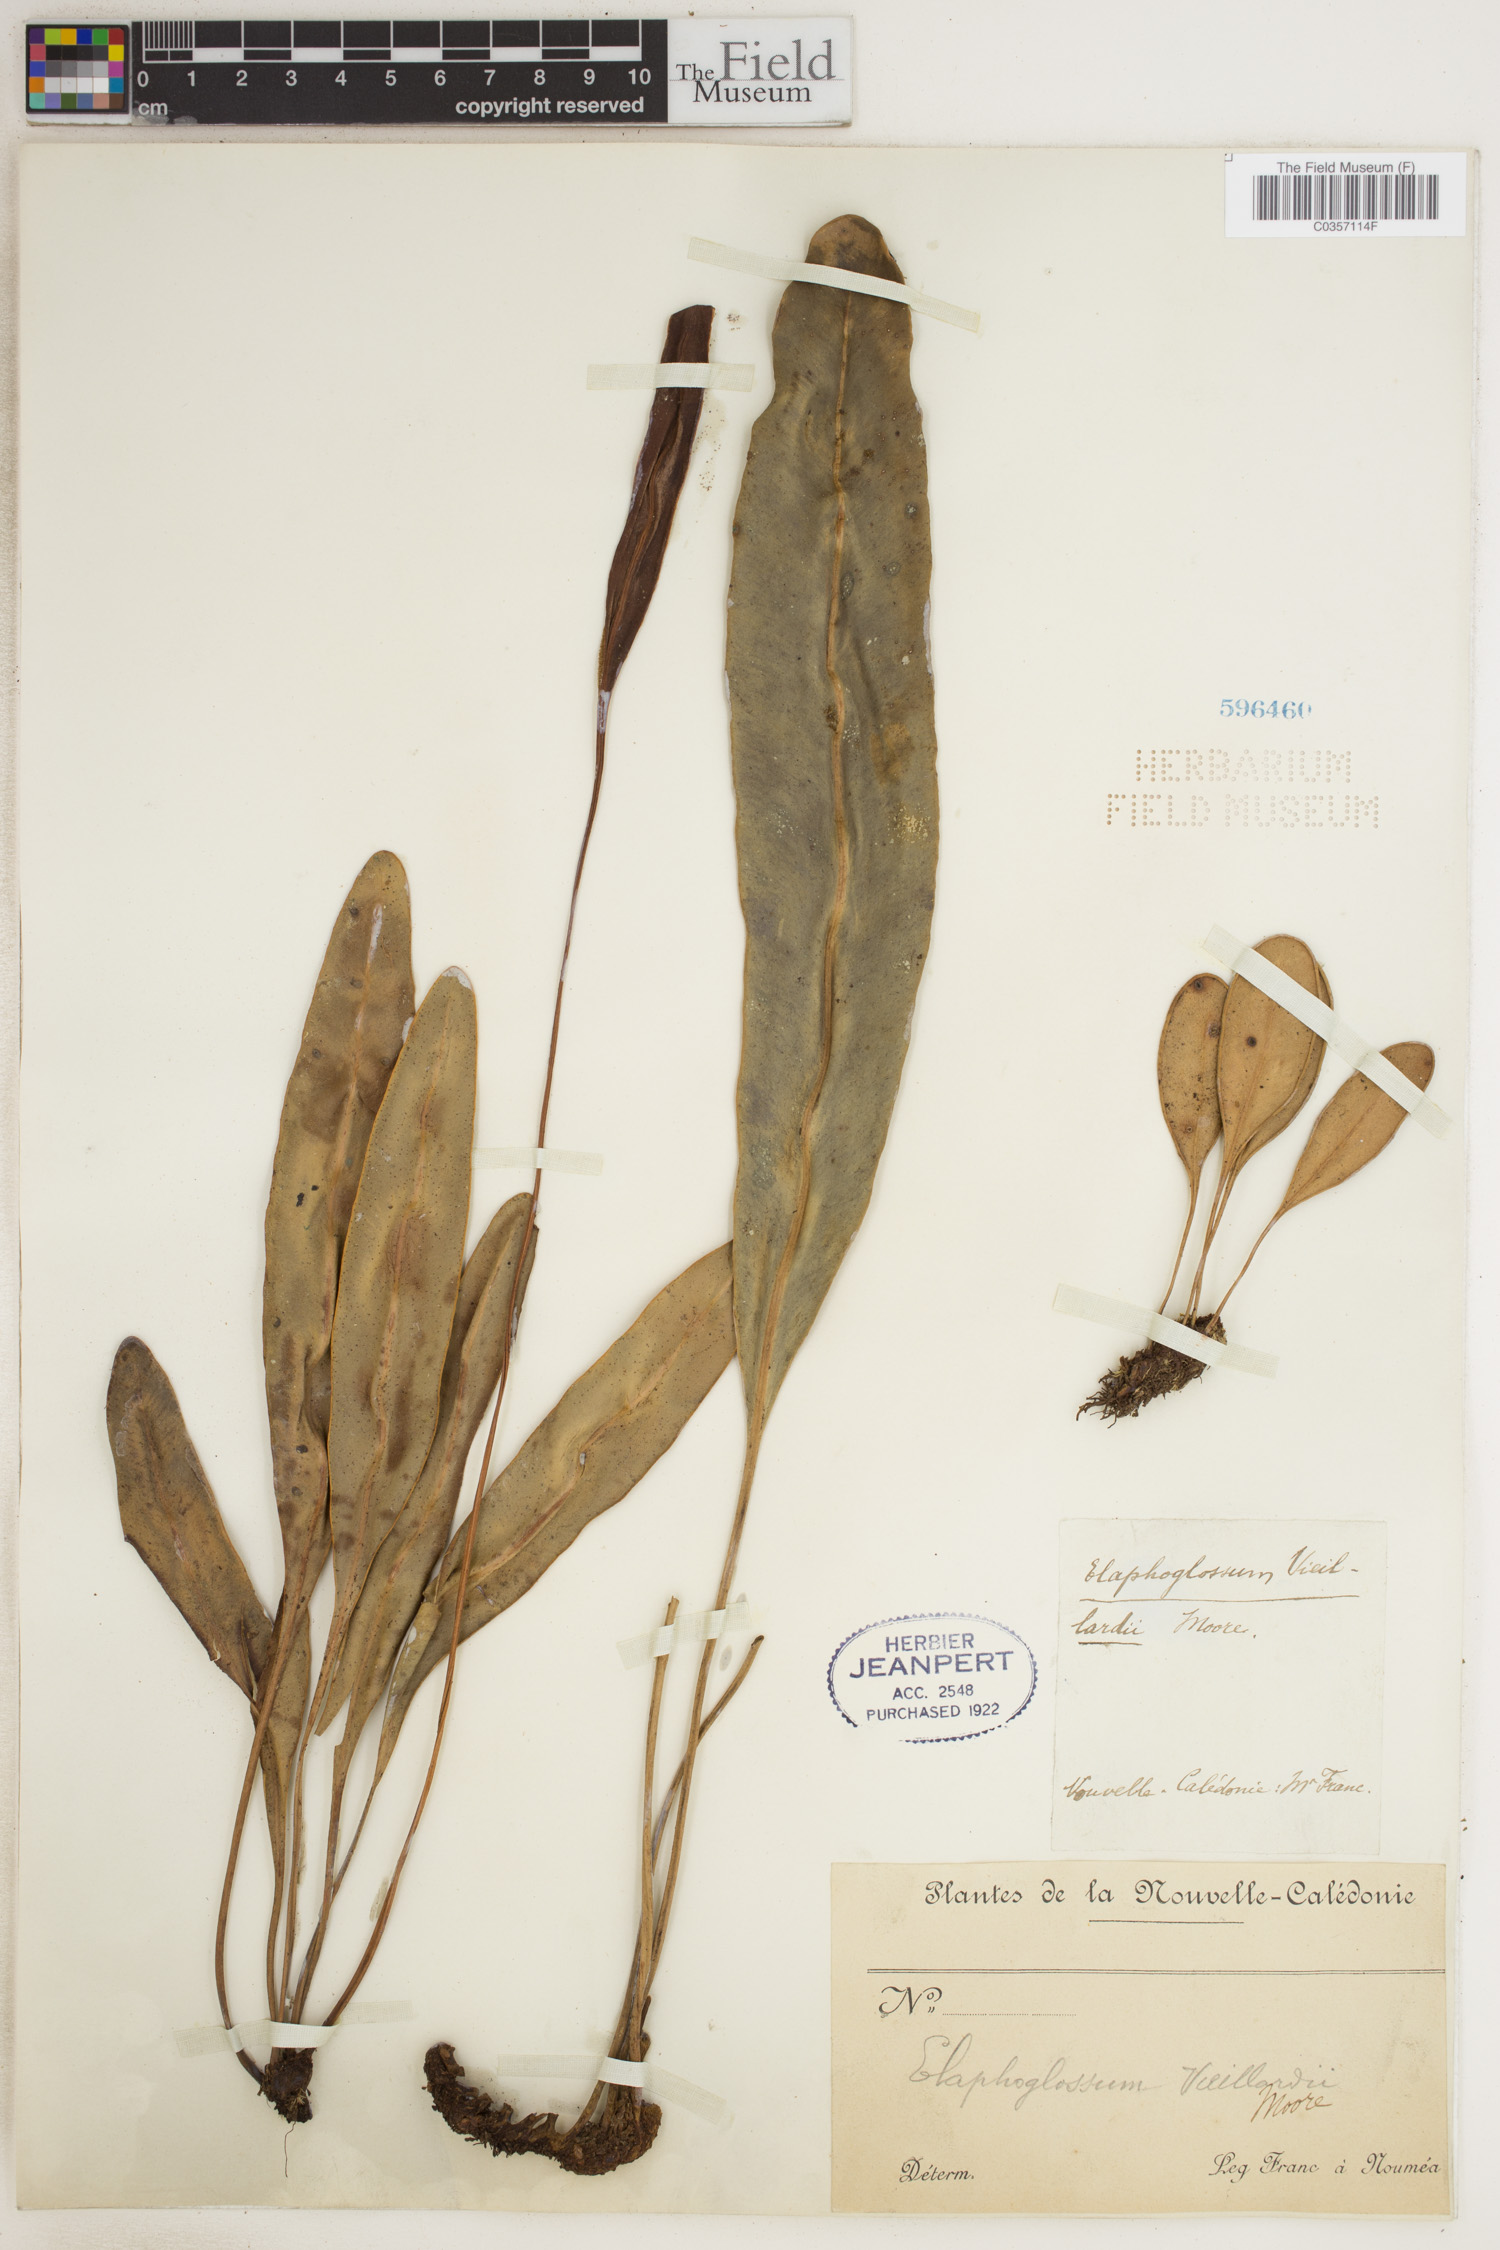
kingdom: Plantae
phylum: Tracheophyta
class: Polypodiopsida
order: Polypodiales
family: Dryopteridaceae
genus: Elaphoglossum
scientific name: Elaphoglossum vieillardii
